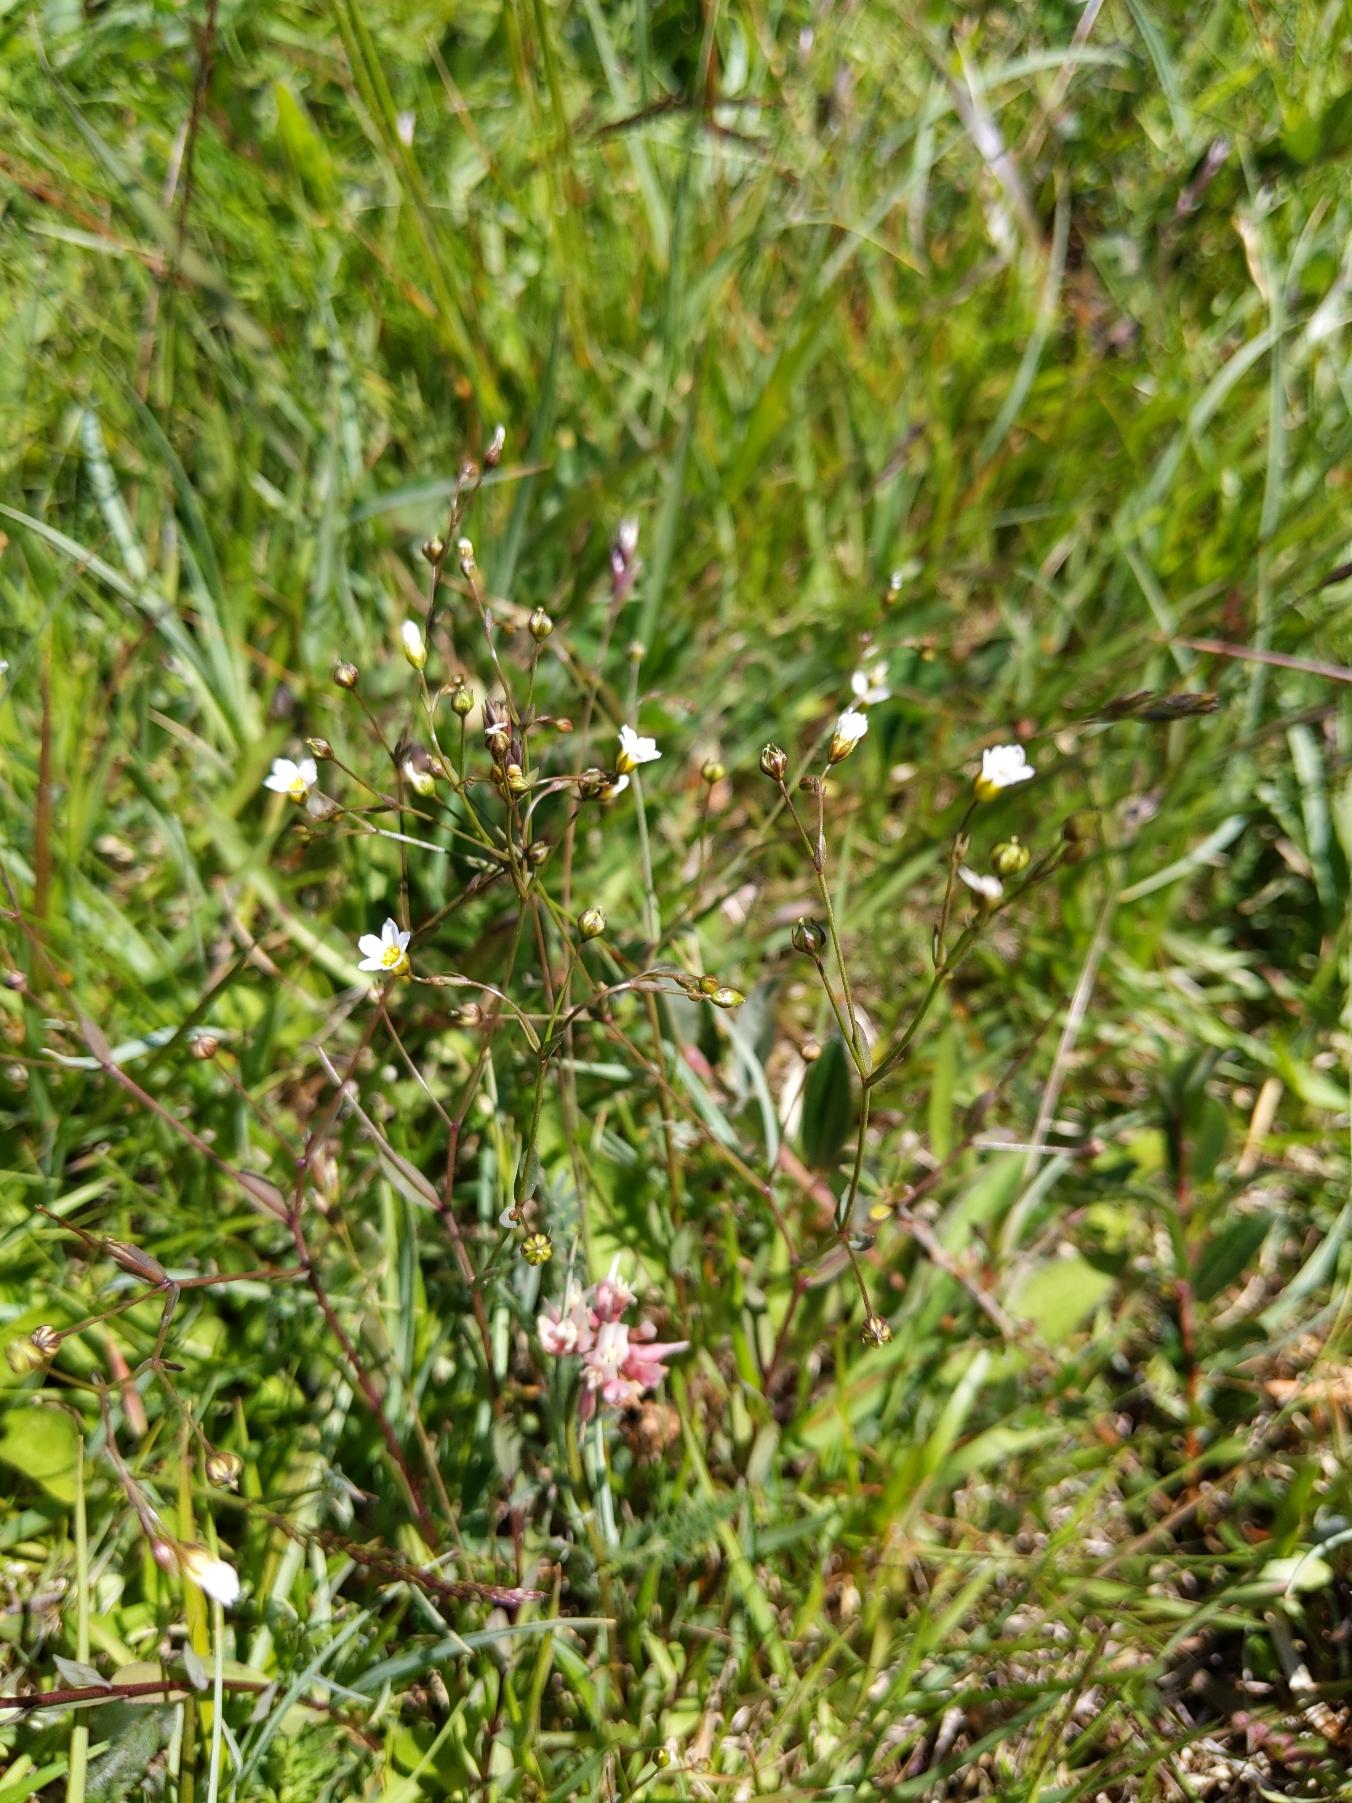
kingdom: Plantae
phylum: Tracheophyta
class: Magnoliopsida
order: Malpighiales
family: Linaceae
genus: Linum
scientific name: Linum catharticum
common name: Vild hør
